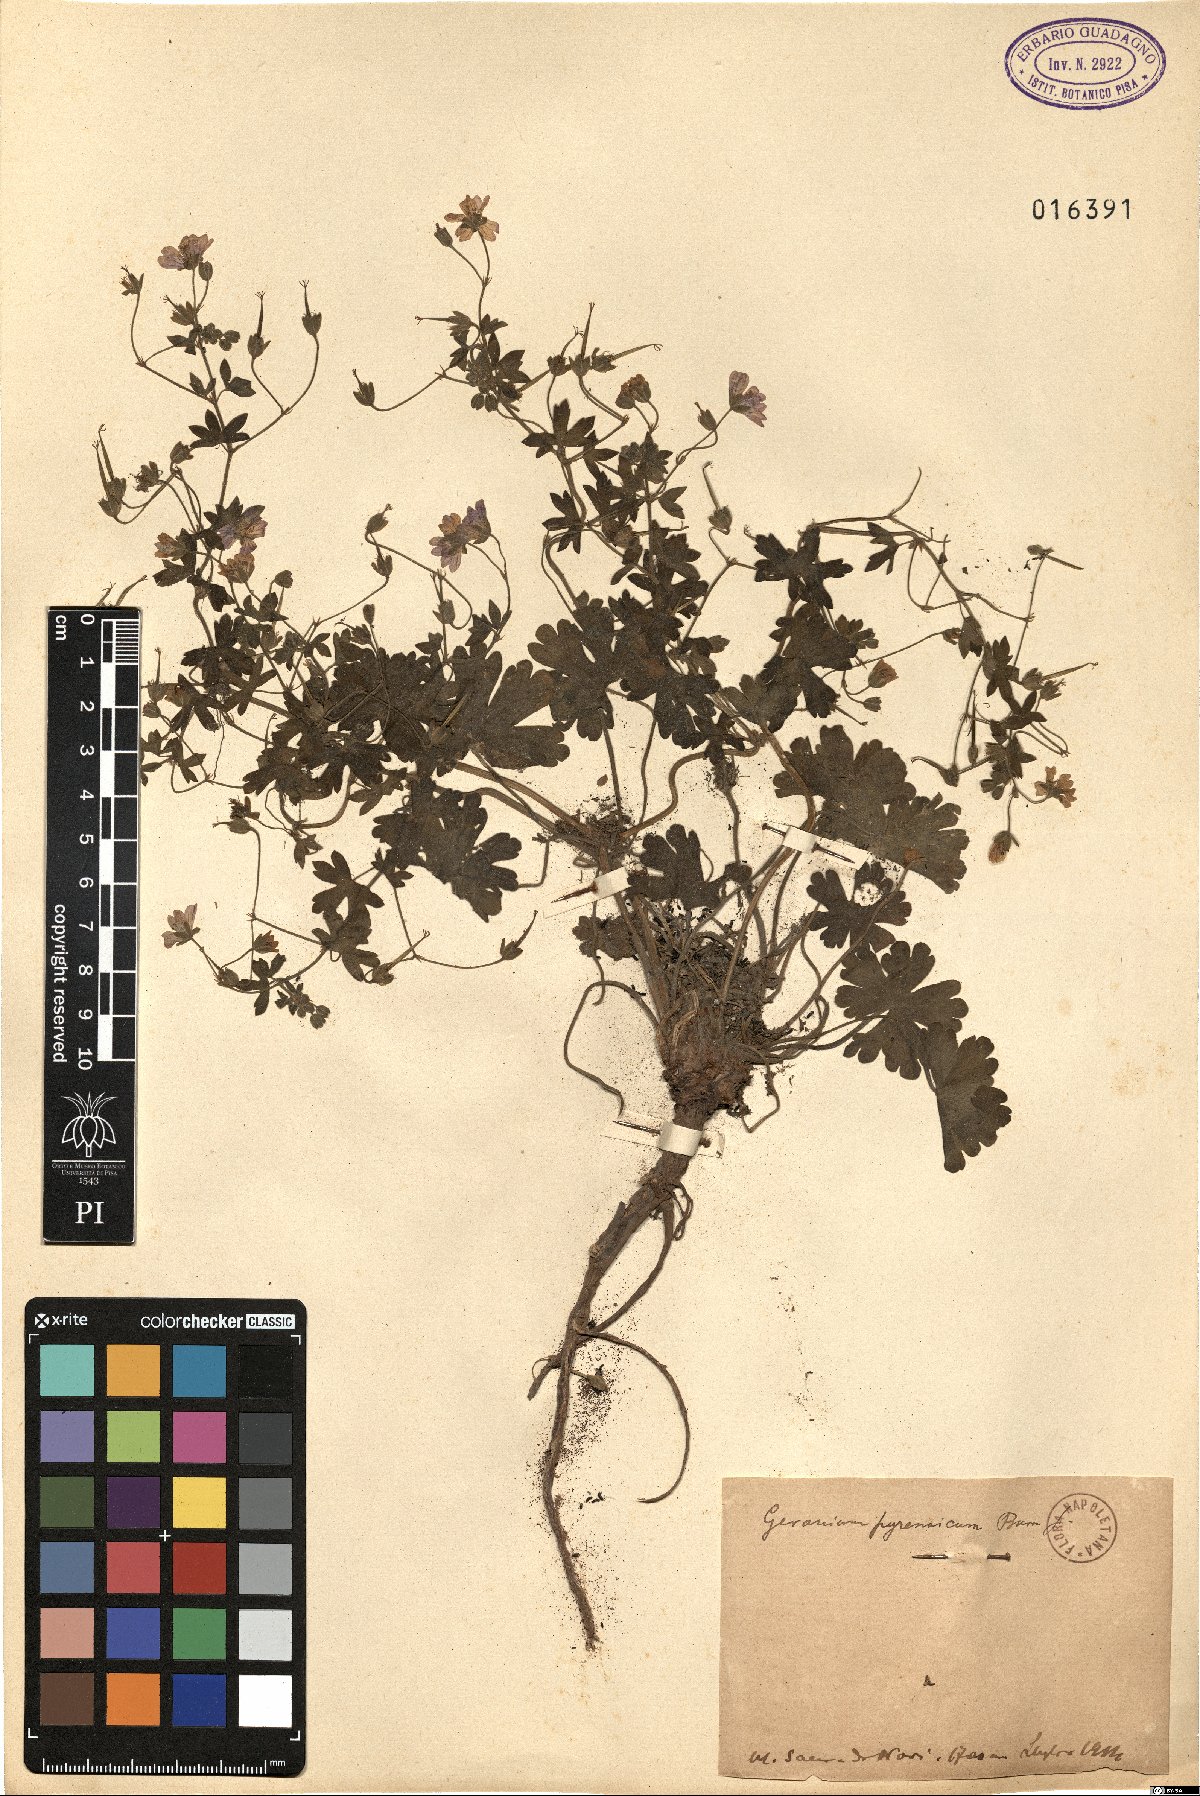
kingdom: Plantae
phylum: Tracheophyta
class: Magnoliopsida
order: Geraniales
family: Geraniaceae
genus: Geranium
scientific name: Geranium pyrenaicum
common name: Hedgerow crane's-bill
